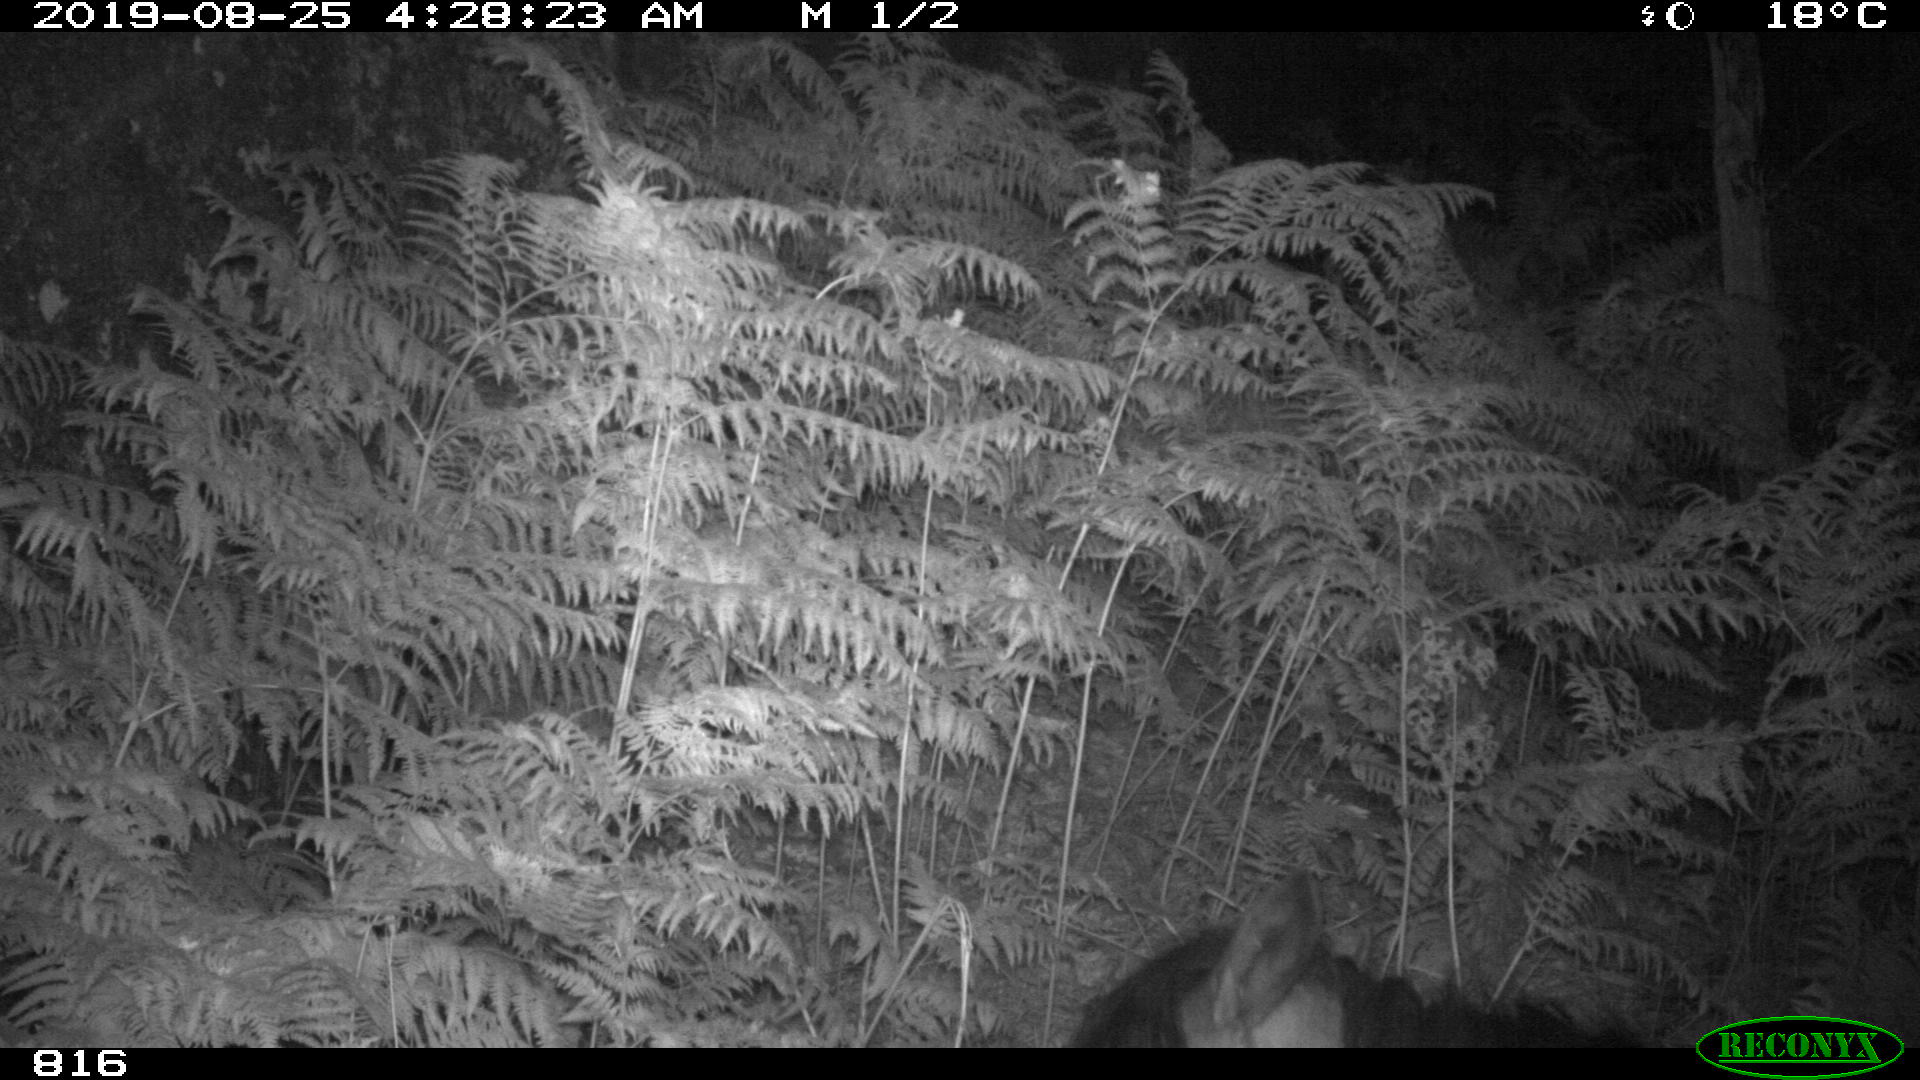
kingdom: Animalia
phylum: Chordata
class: Mammalia
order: Perissodactyla
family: Equidae
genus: Equus
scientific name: Equus caballus
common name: Horse
